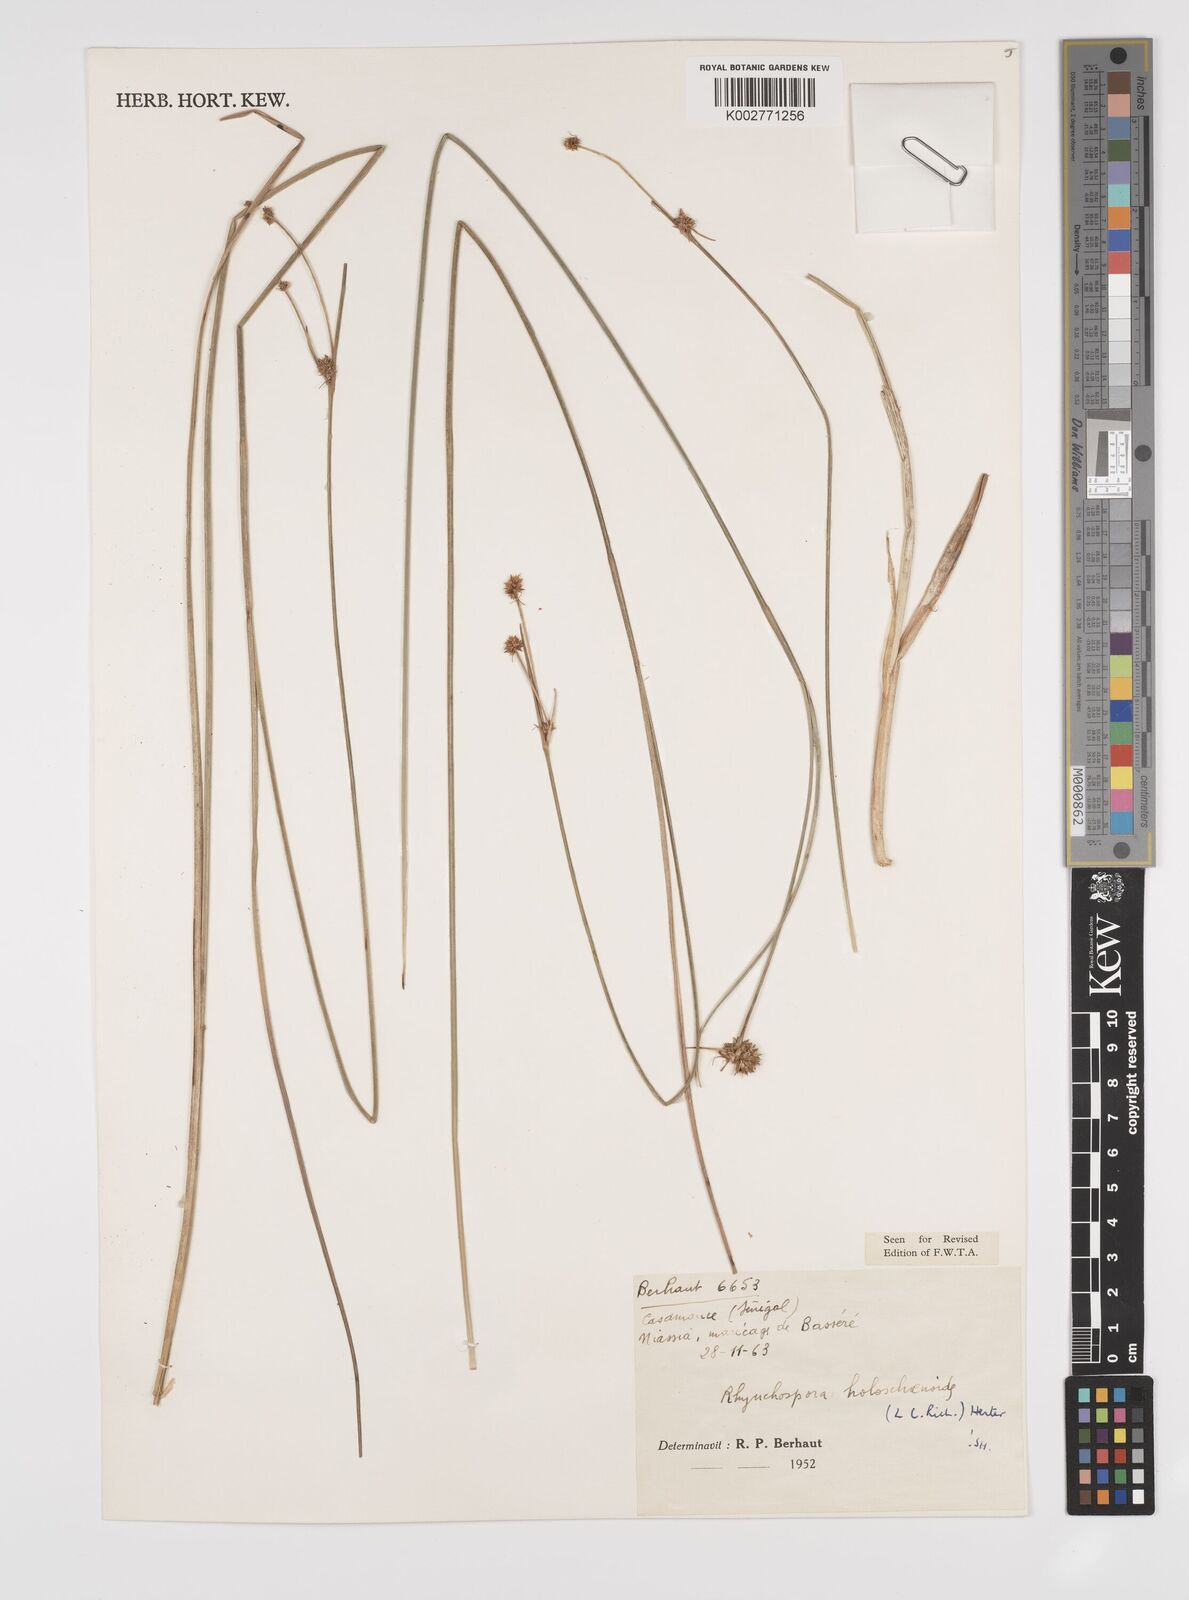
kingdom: Plantae
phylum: Tracheophyta
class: Liliopsida
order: Poales
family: Cyperaceae
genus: Rhynchospora
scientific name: Rhynchospora holoschoenoides
